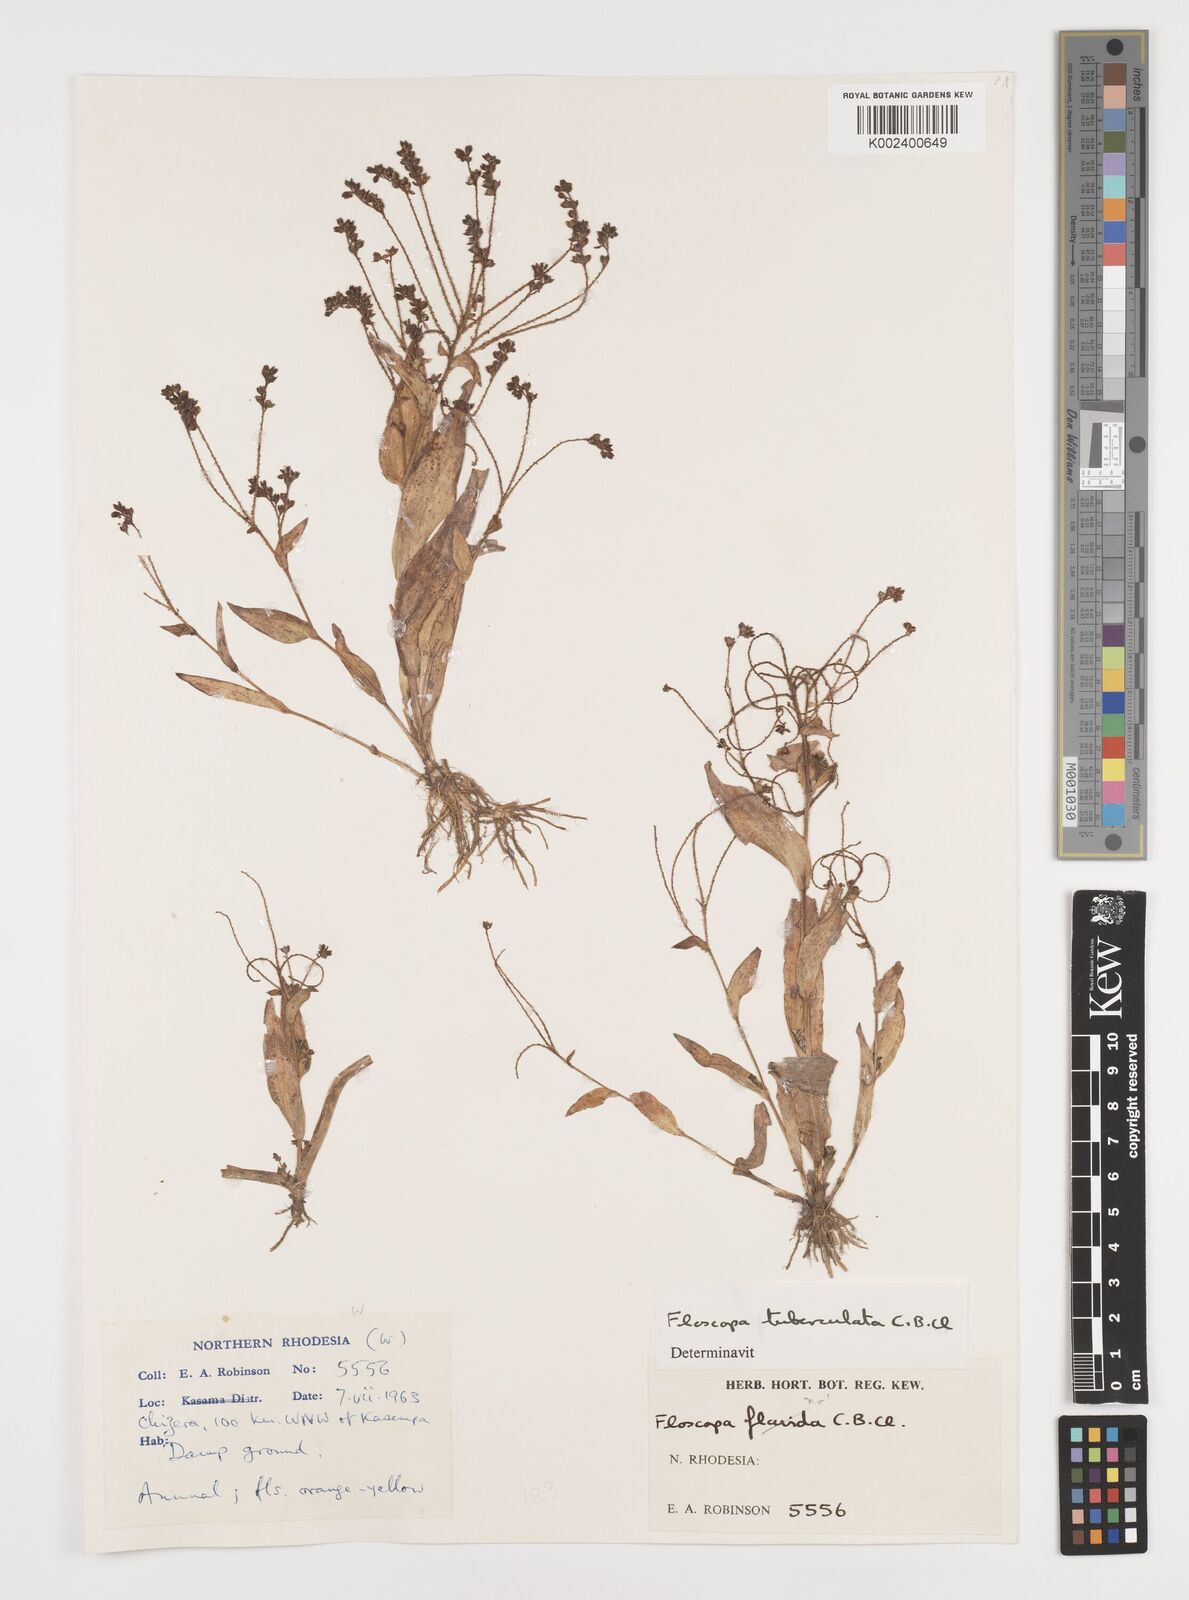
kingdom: Plantae
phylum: Tracheophyta
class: Liliopsida
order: Commelinales
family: Commelinaceae
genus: Floscopa
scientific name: Floscopa tuberculata
